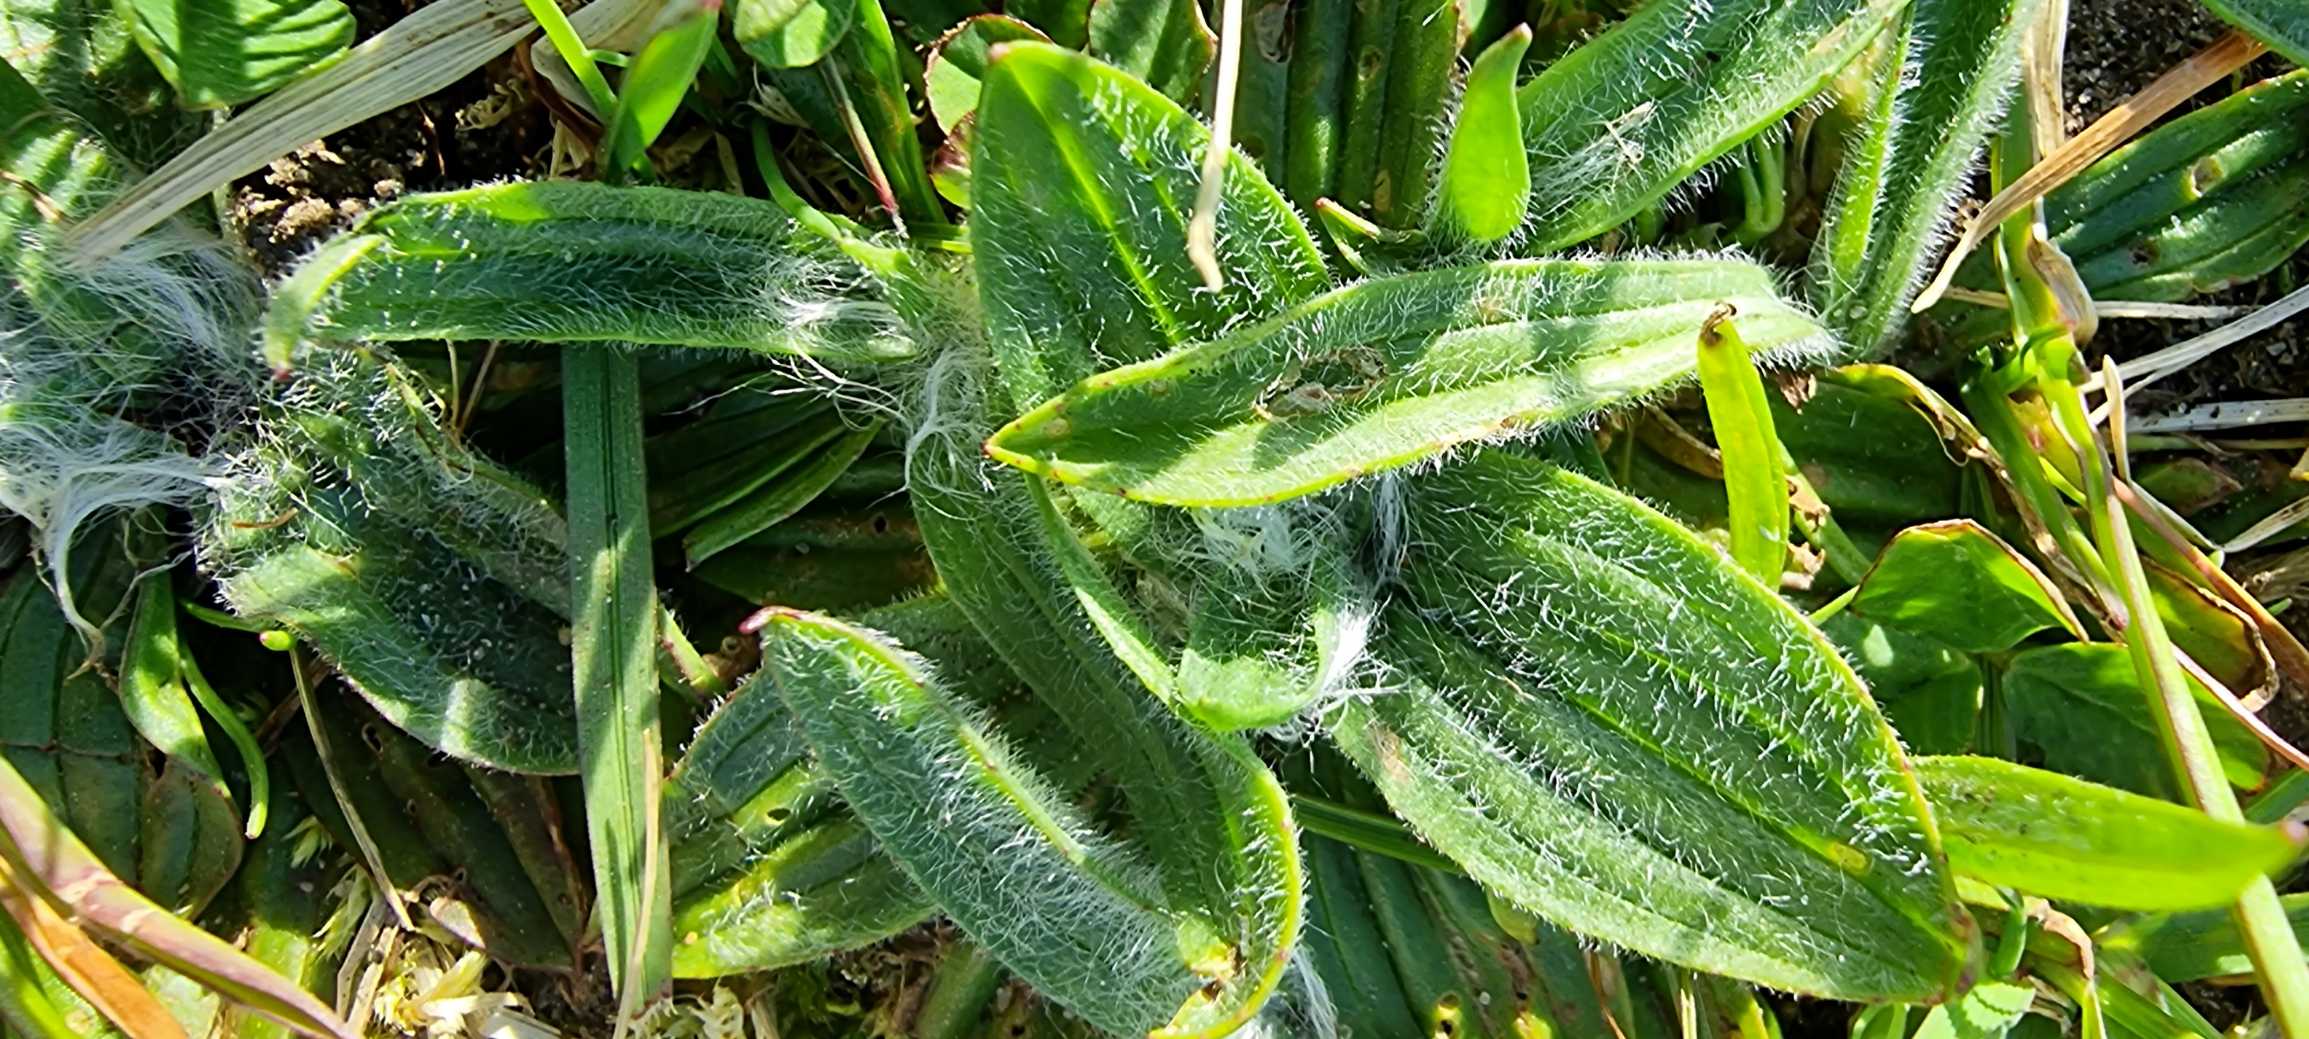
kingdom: Plantae
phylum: Tracheophyta
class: Magnoliopsida
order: Lamiales
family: Plantaginaceae
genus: Plantago
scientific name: Plantago media
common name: Dunet vejbred
